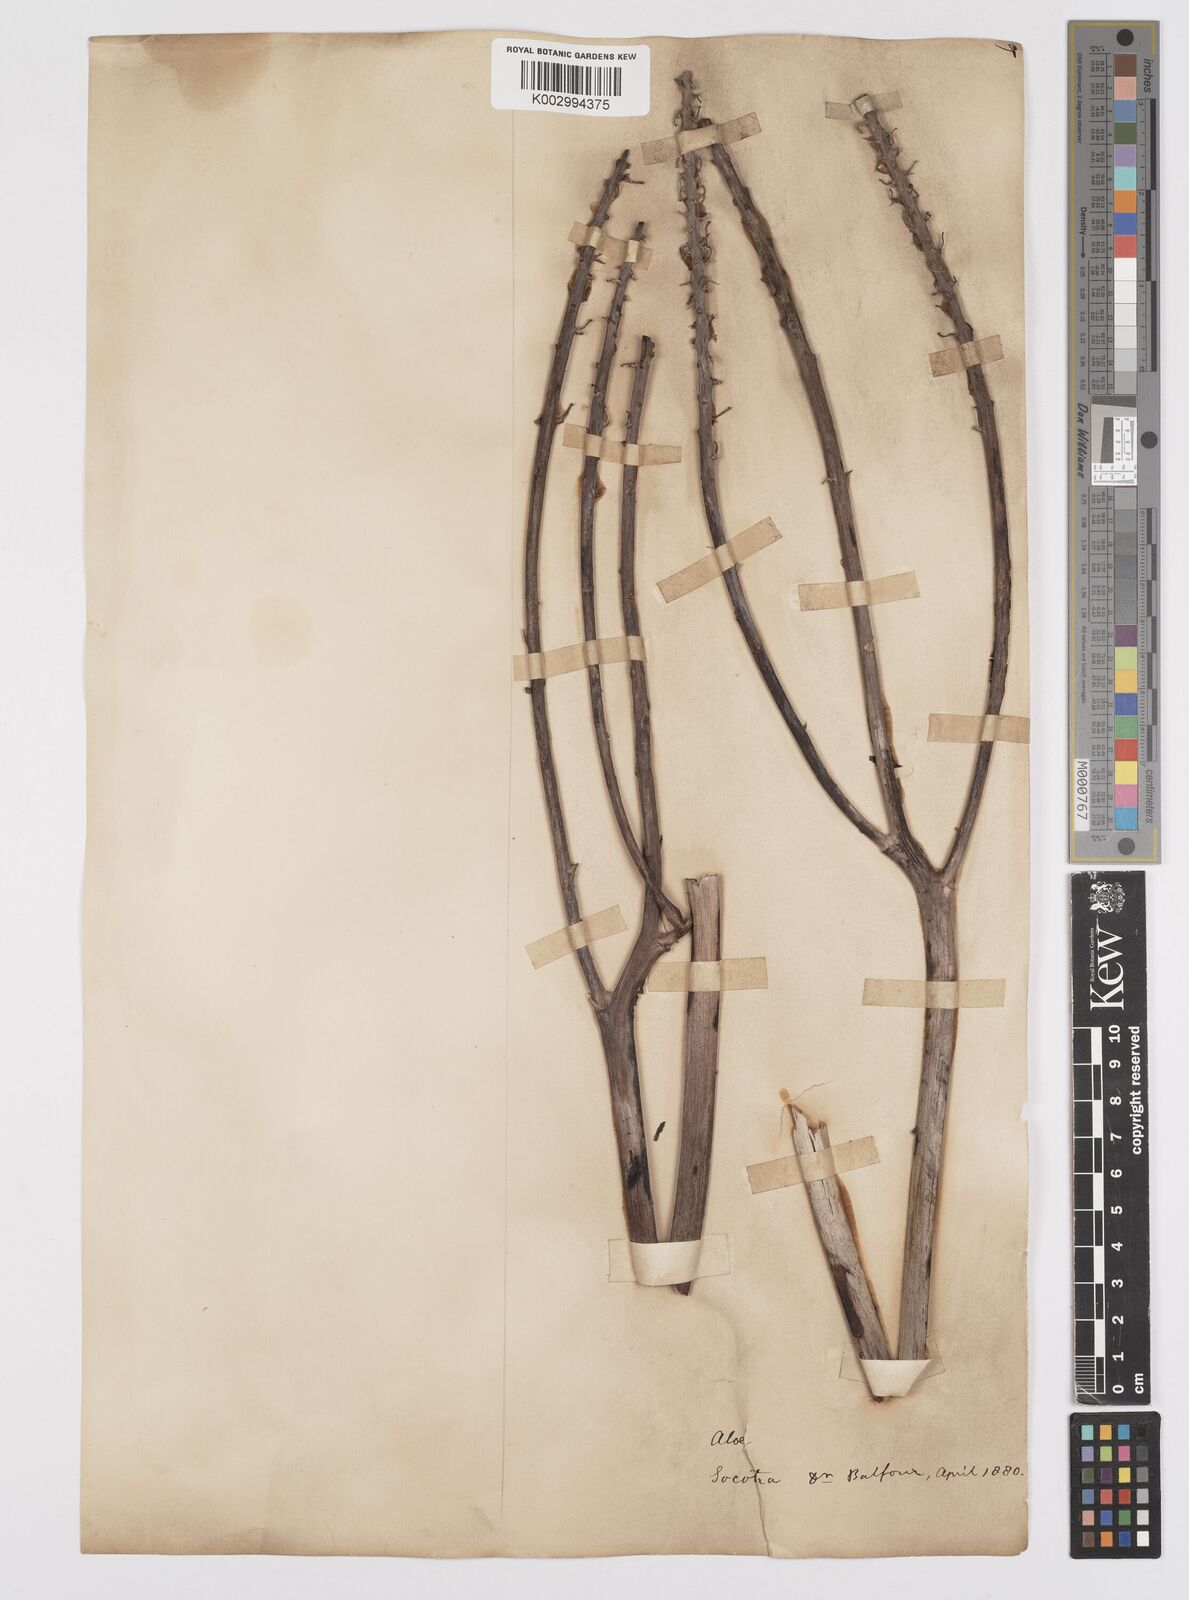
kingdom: Plantae
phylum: Tracheophyta
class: Liliopsida
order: Asparagales
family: Asphodelaceae
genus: Aloe
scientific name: Aloe perryi
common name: Socotrine aloe
